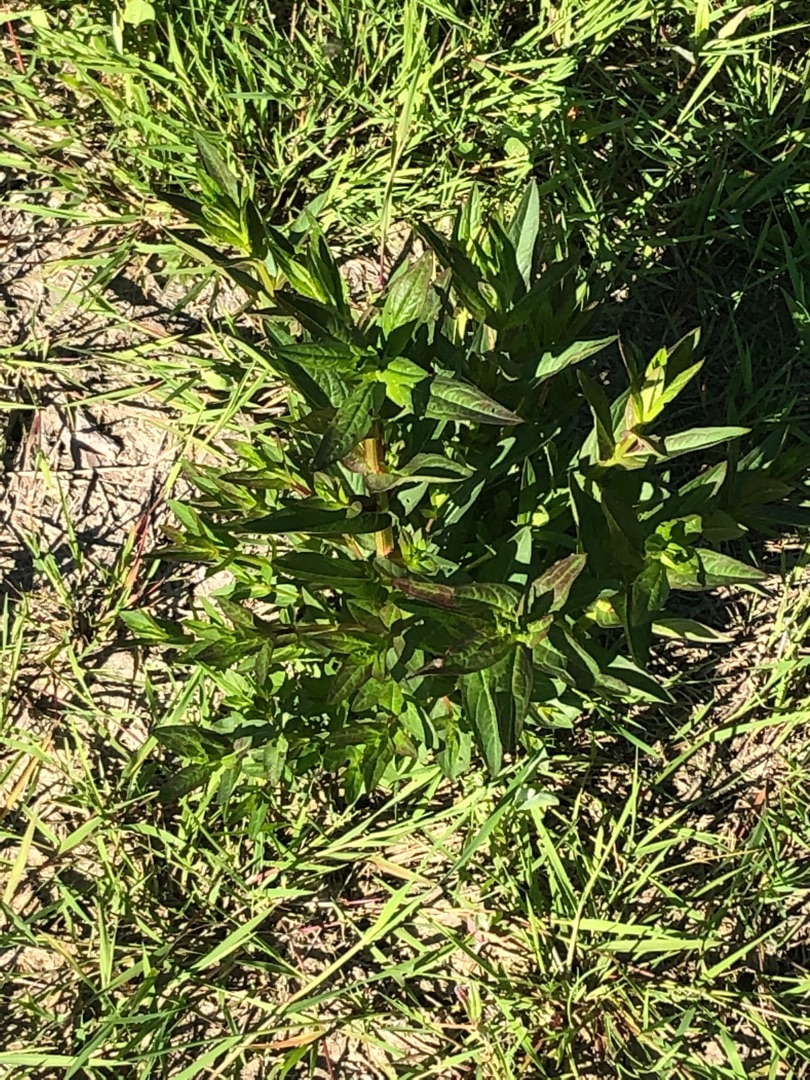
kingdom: Plantae
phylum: Tracheophyta
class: Magnoliopsida
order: Myrtales
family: Lythraceae
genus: Lythrum
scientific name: Lythrum salicaria
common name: Kattehale
